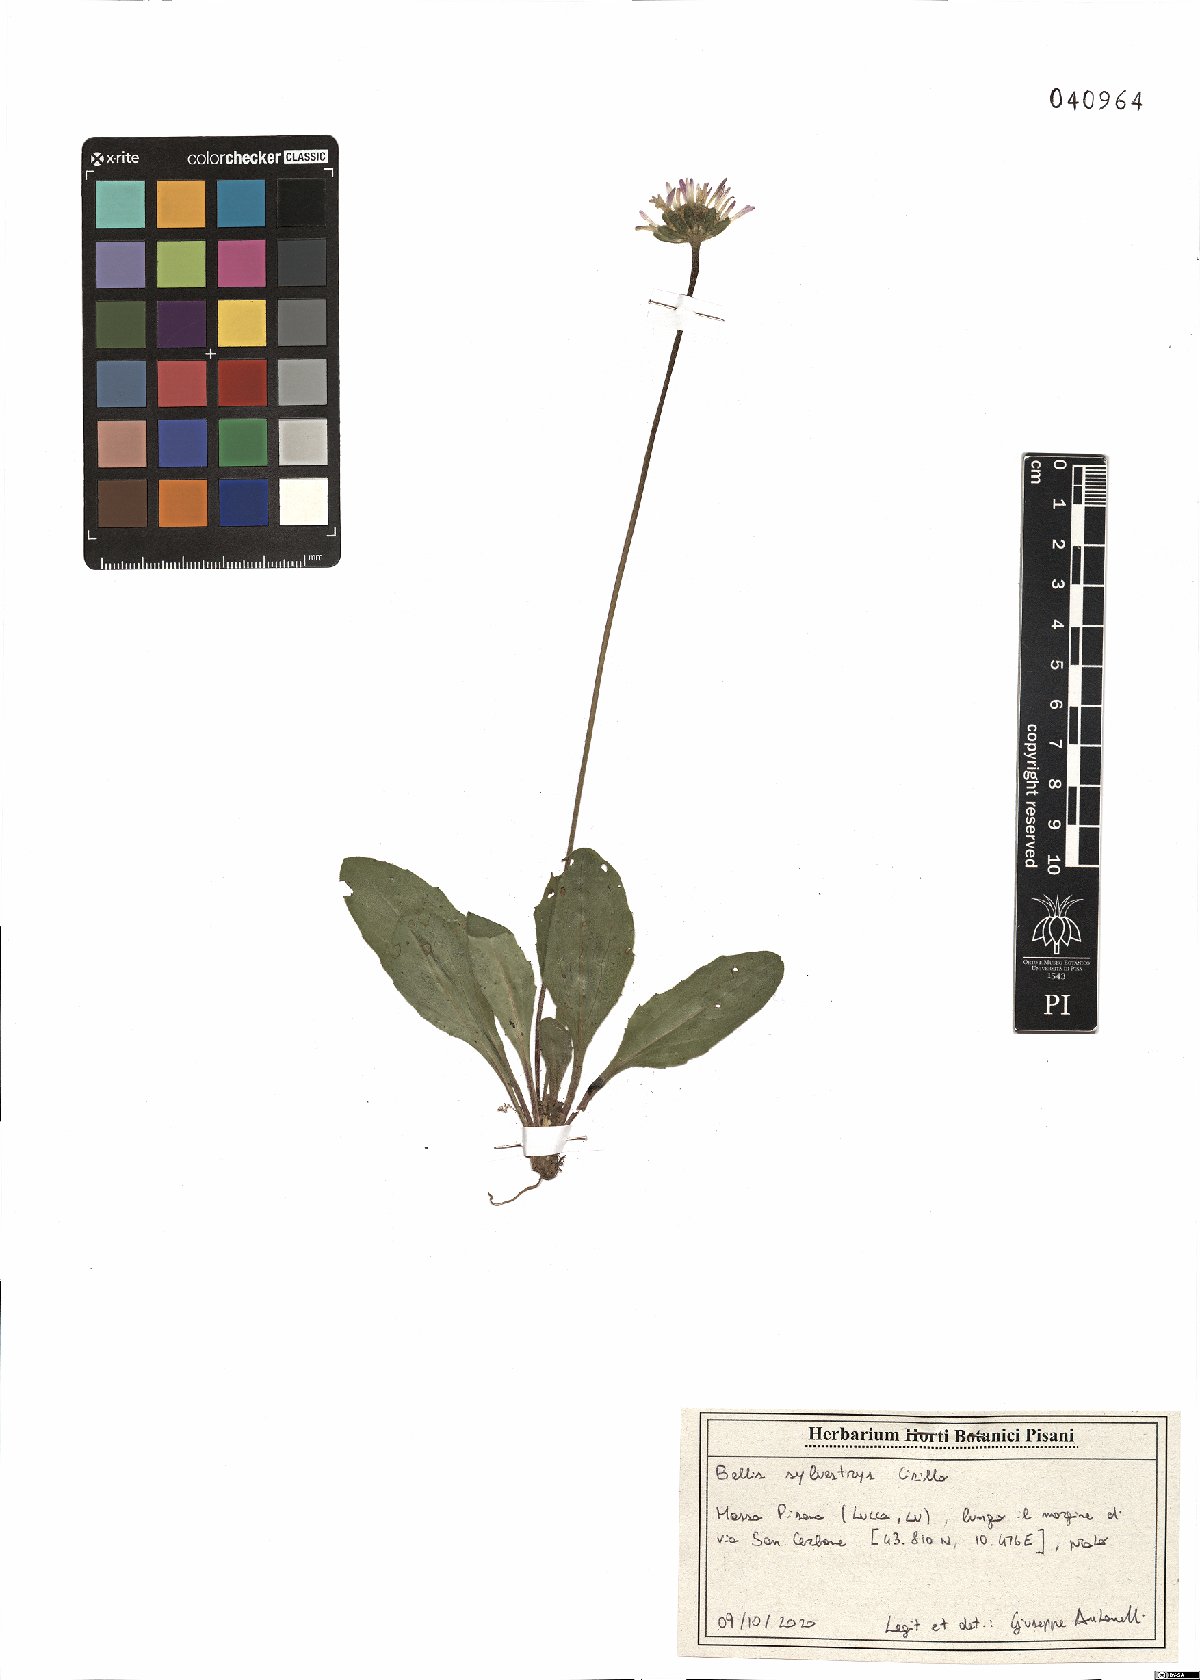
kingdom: Plantae
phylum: Tracheophyta
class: Magnoliopsida
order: Asterales
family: Asteraceae
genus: Bellis
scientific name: Bellis sylvestris
